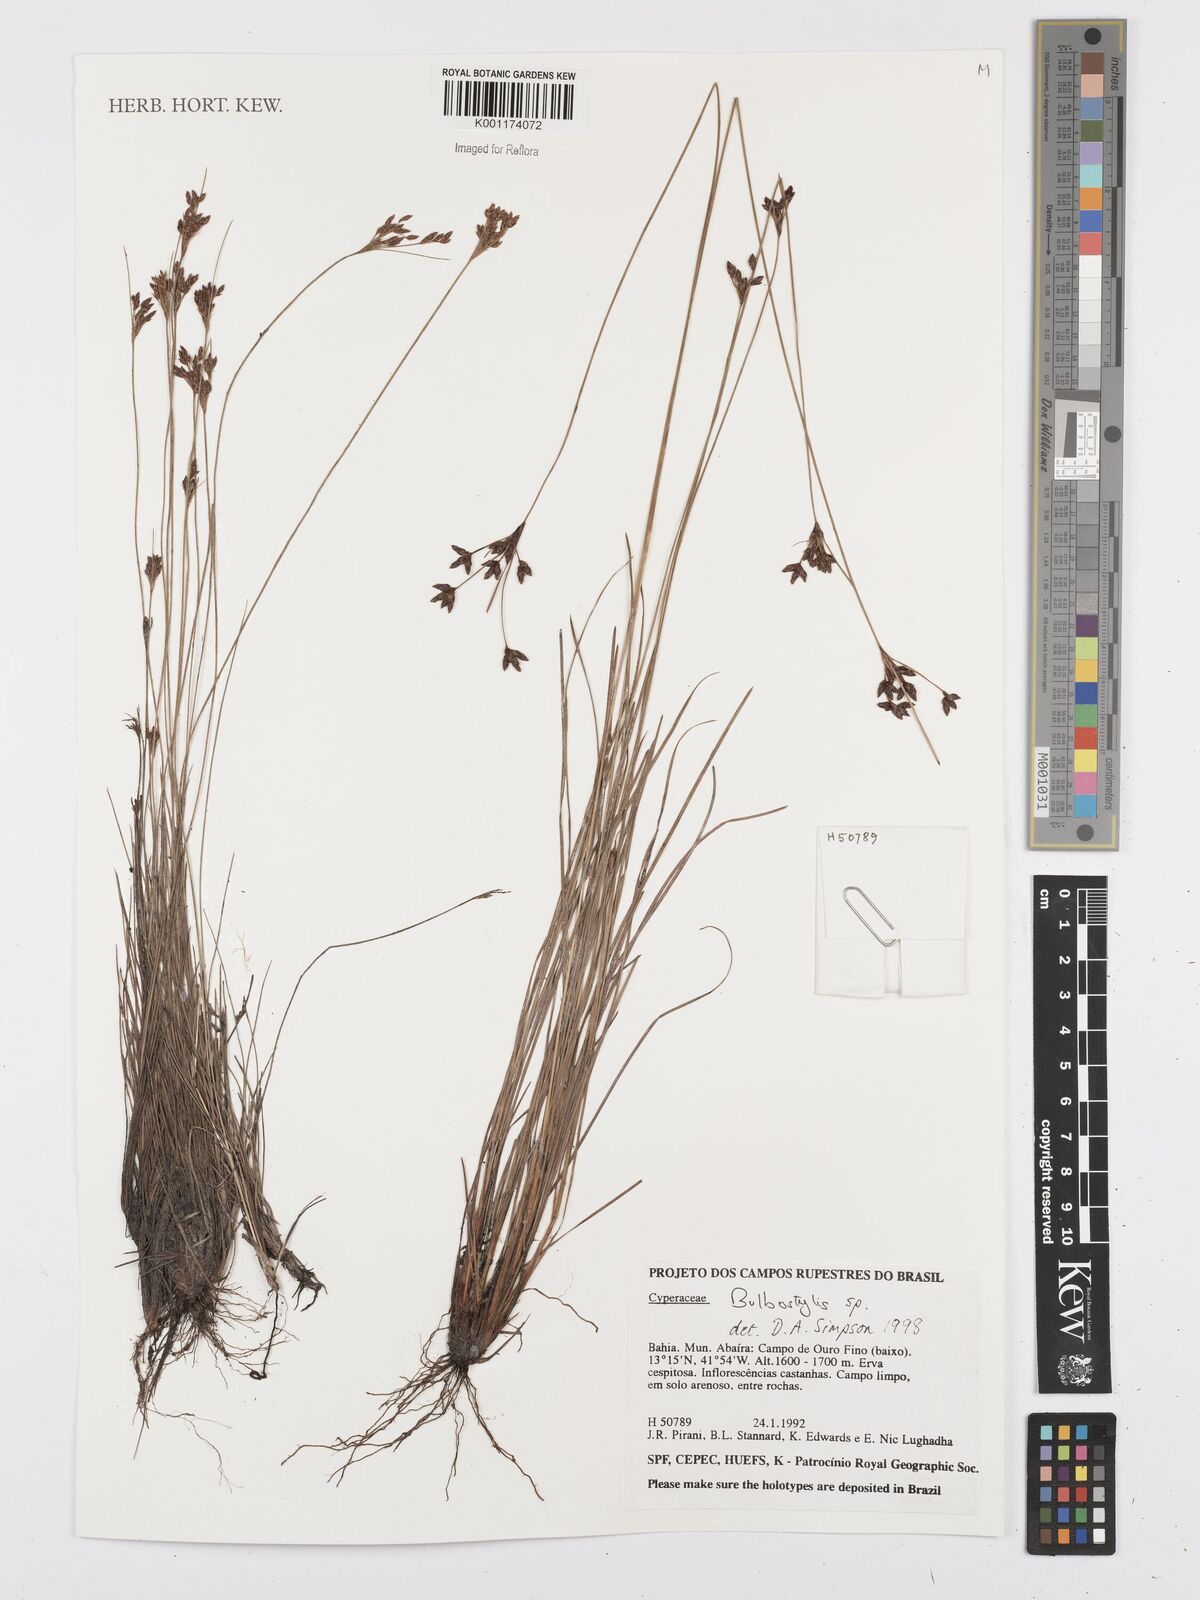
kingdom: Plantae
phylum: Tracheophyta
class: Liliopsida
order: Poales
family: Cyperaceae
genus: Bulbostylis
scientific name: Bulbostylis
